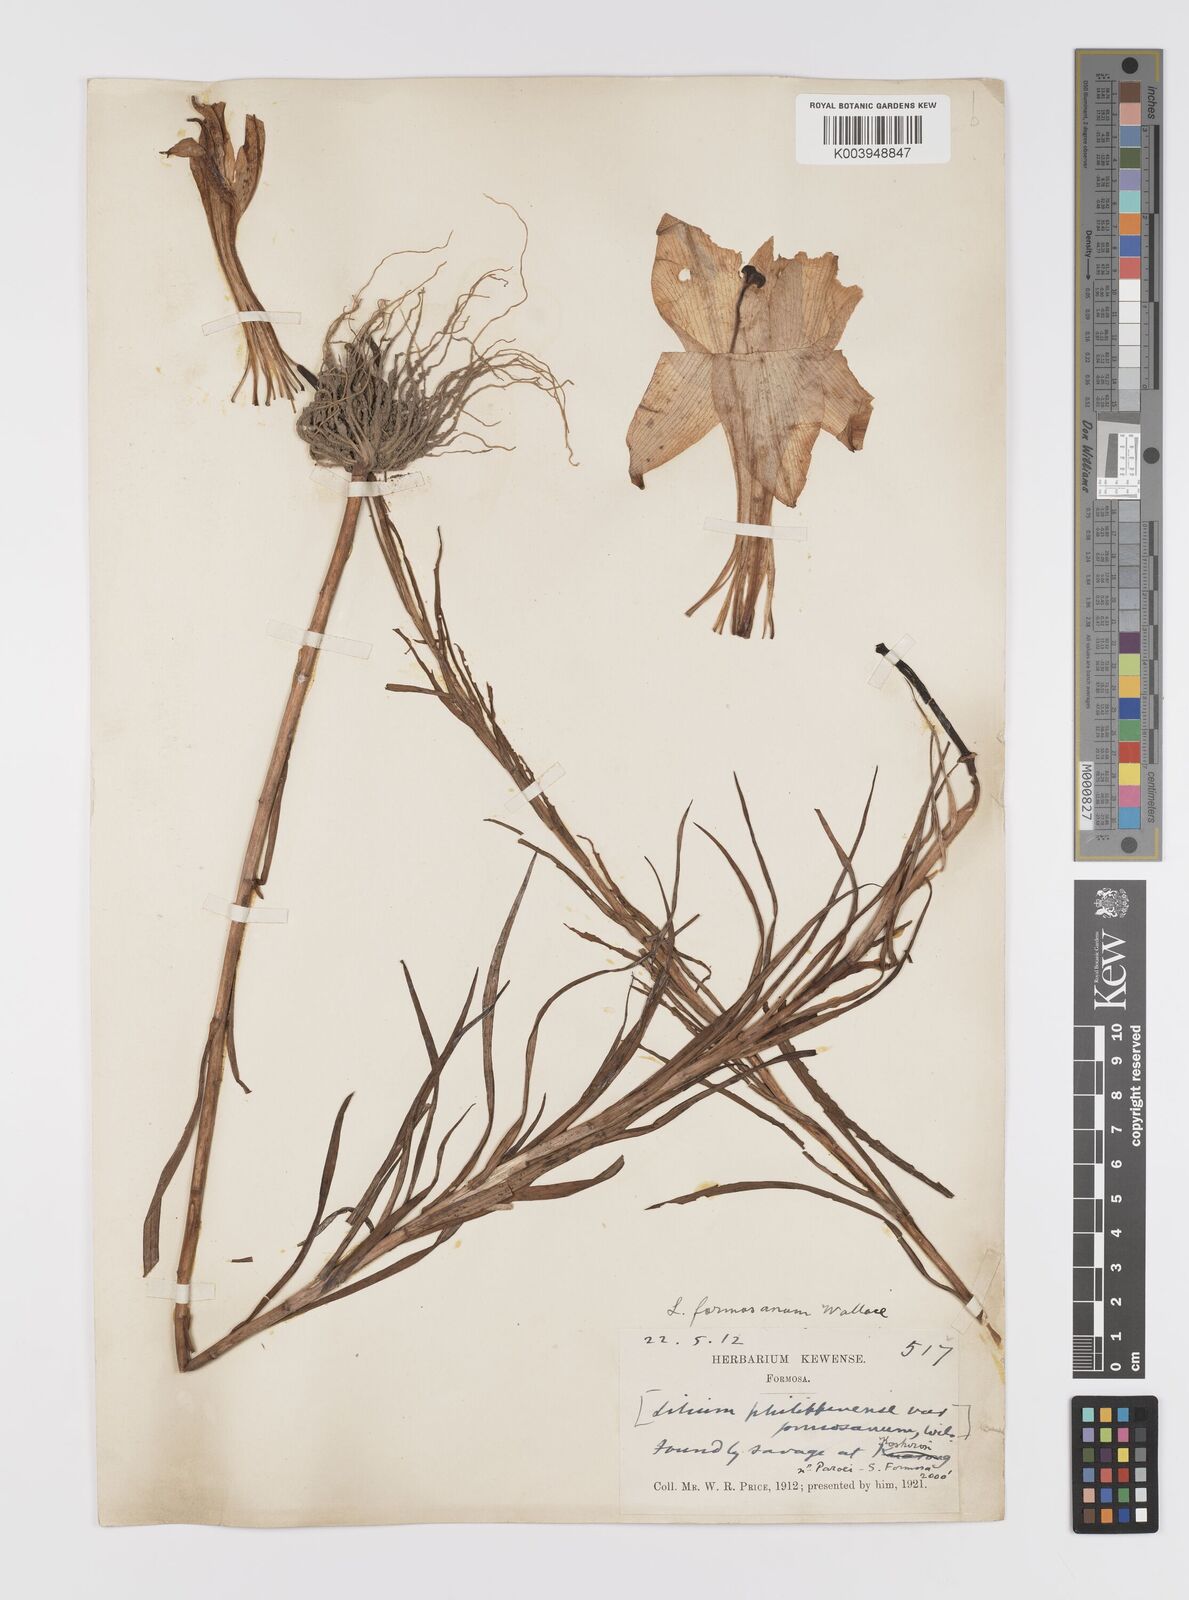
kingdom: Plantae
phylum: Tracheophyta
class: Liliopsida
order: Liliales
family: Liliaceae
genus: Lilium
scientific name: Lilium formosanum
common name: Formosa lily
